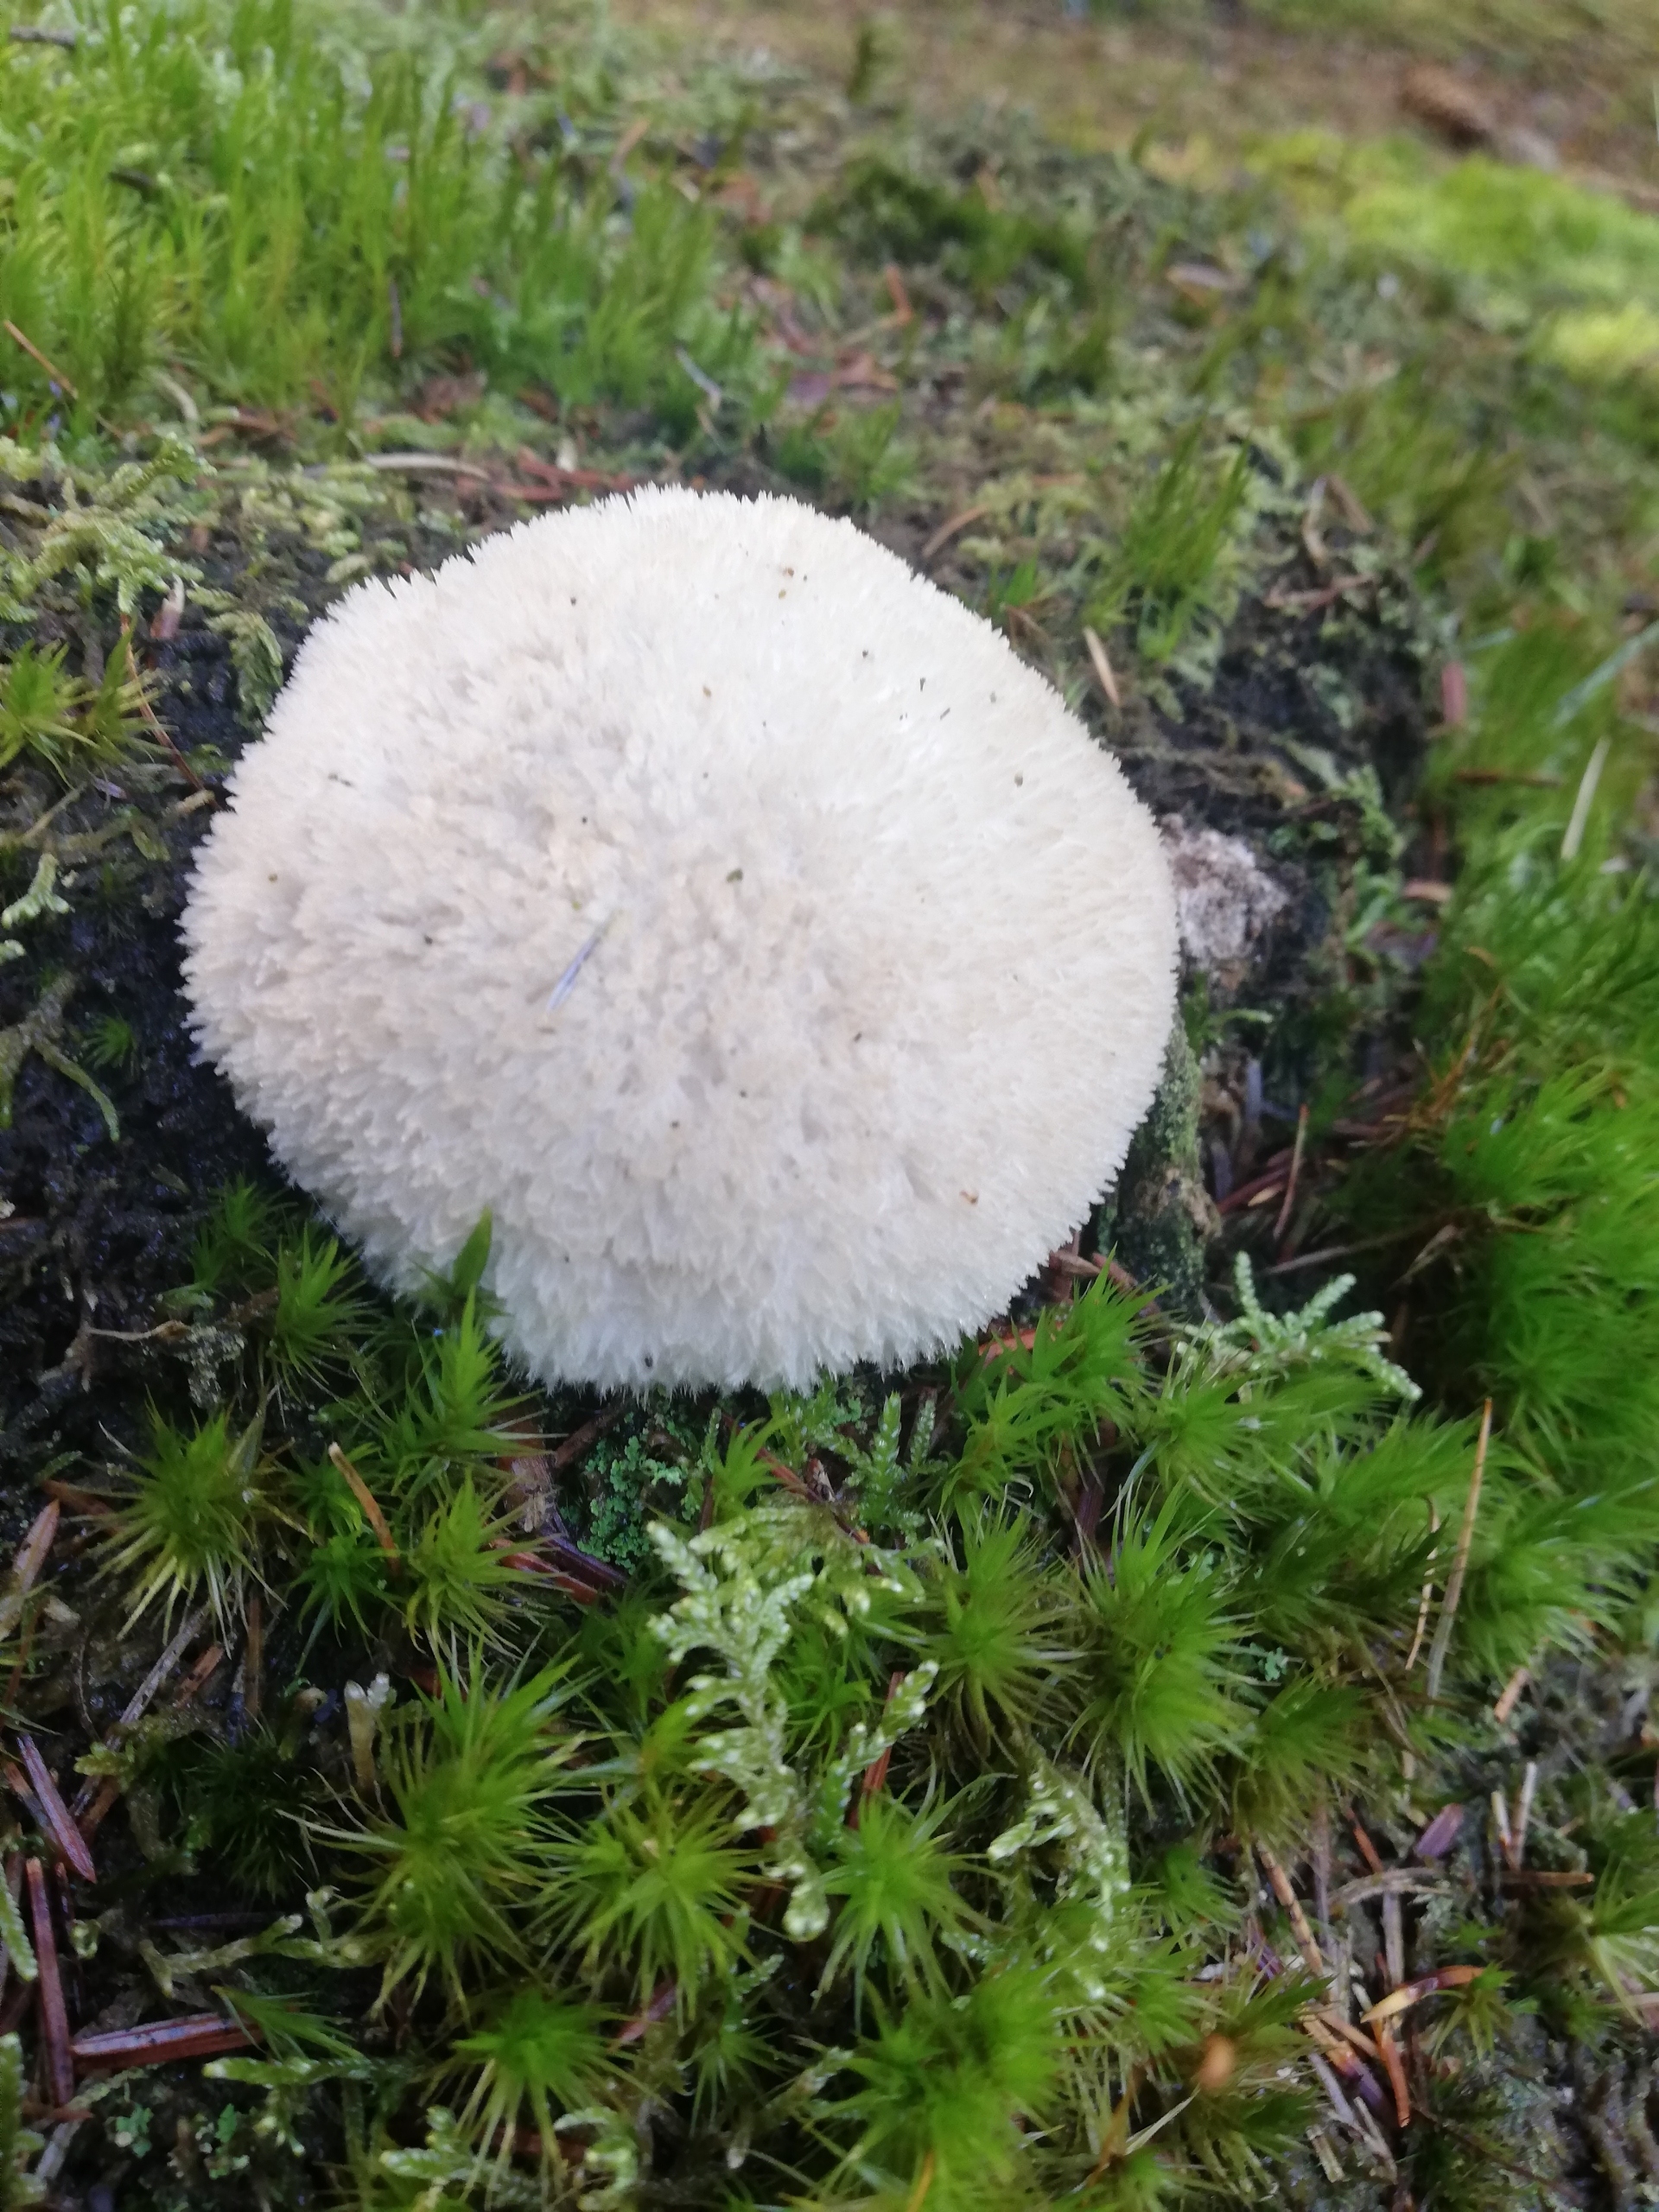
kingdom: Fungi
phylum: Basidiomycota
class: Agaricomycetes
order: Polyporales
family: Dacryobolaceae
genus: Postia
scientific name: Postia ptychogaster
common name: Støvende kødporesvamp
